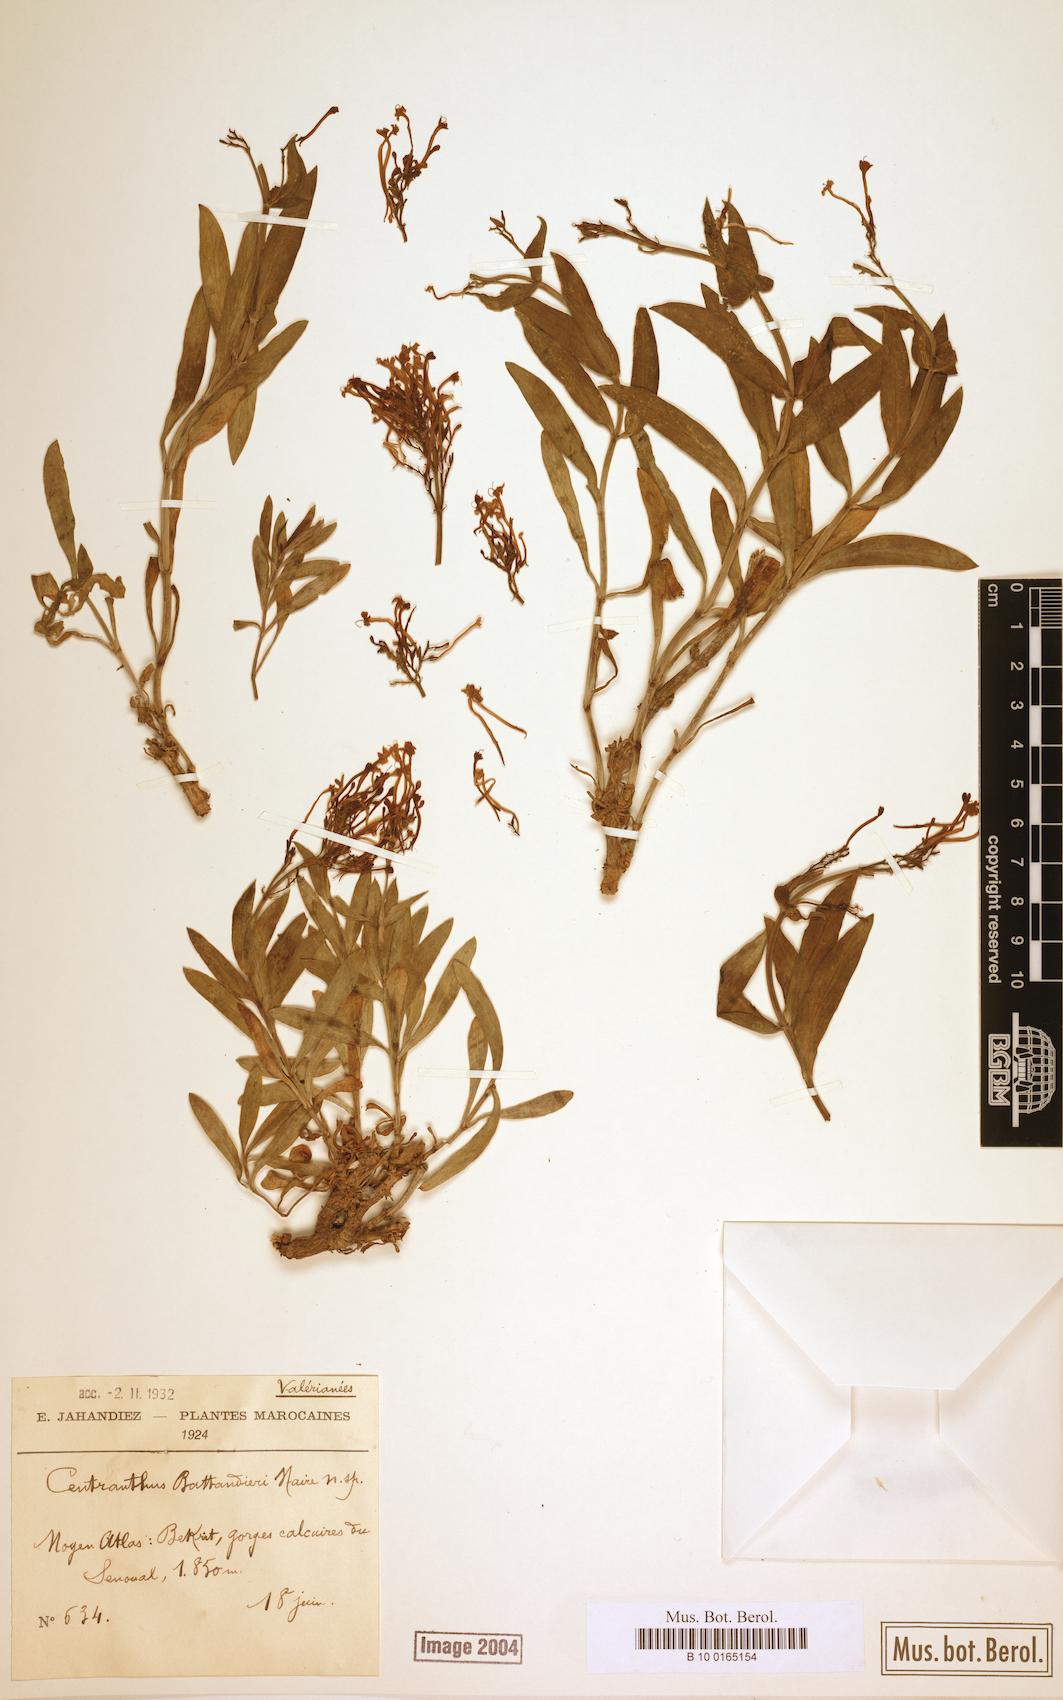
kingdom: Plantae
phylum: Tracheophyta
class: Magnoliopsida
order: Dipsacales
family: Caprifoliaceae
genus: Centranthus
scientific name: Centranthus battandieri
